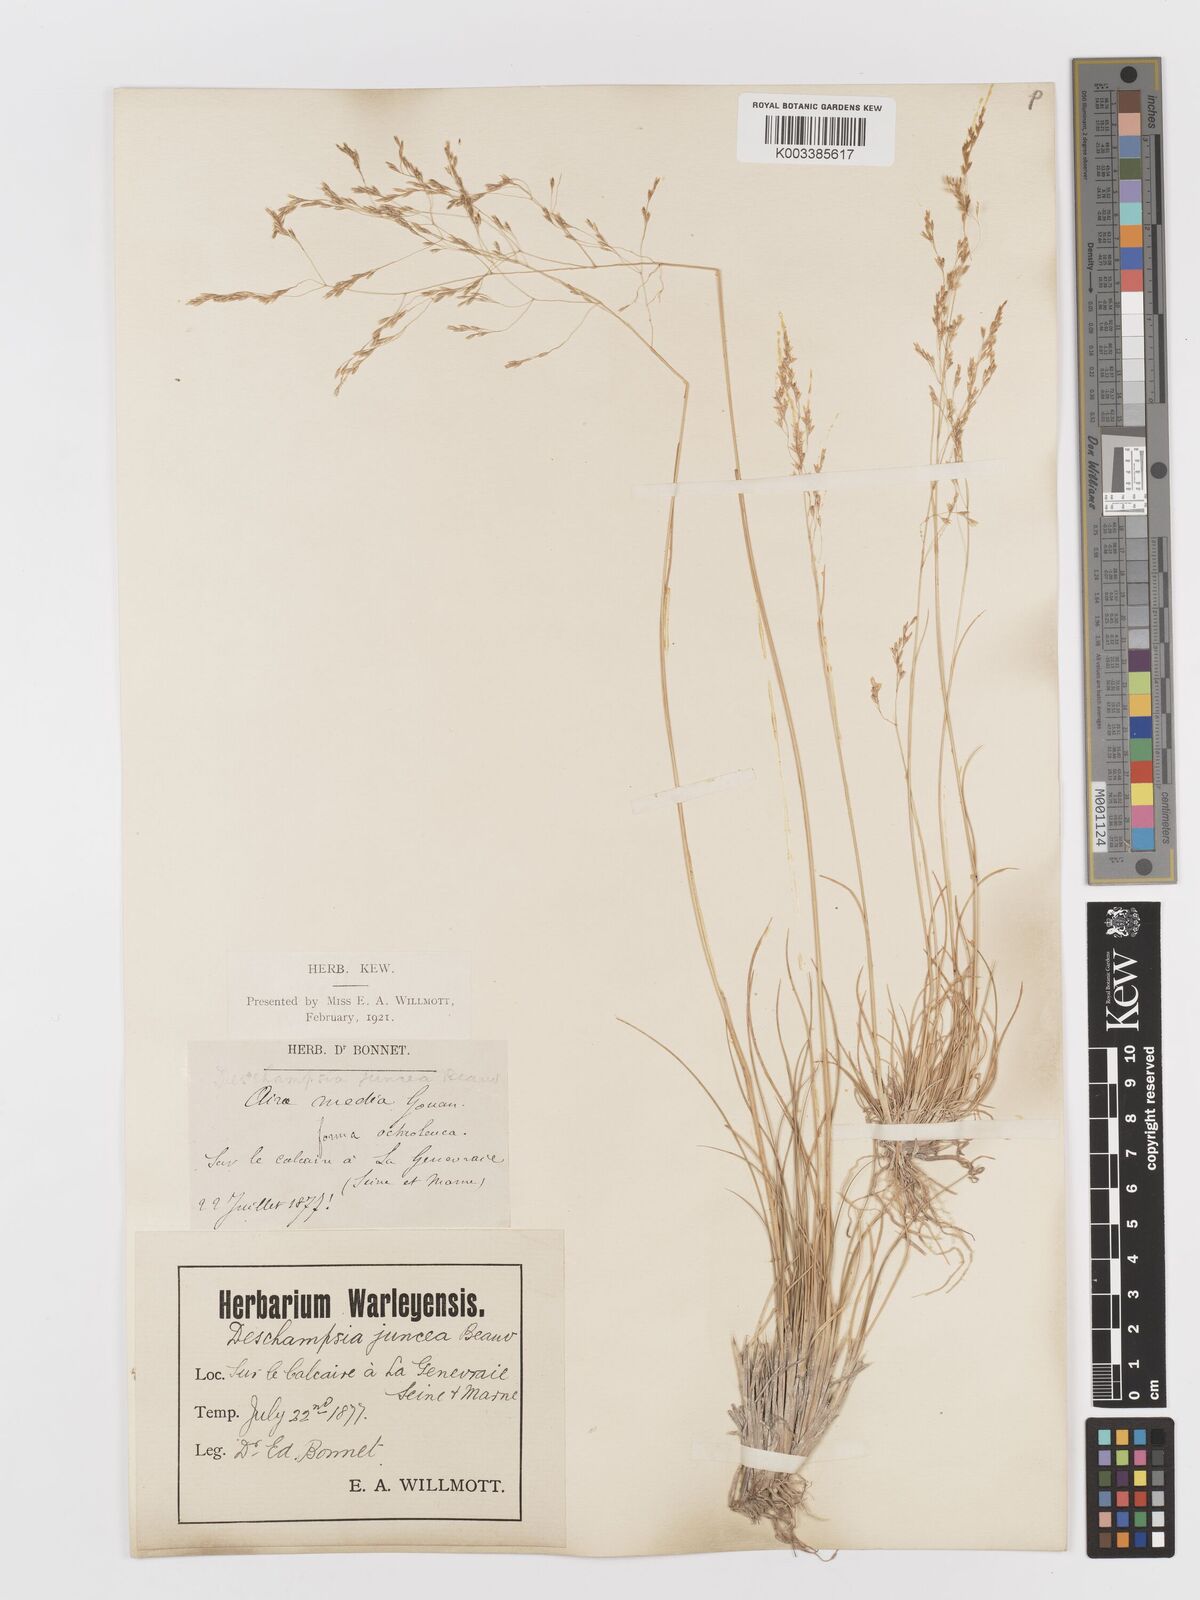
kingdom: Plantae
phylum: Tracheophyta
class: Liliopsida
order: Poales
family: Poaceae
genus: Deschampsia
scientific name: Deschampsia media
